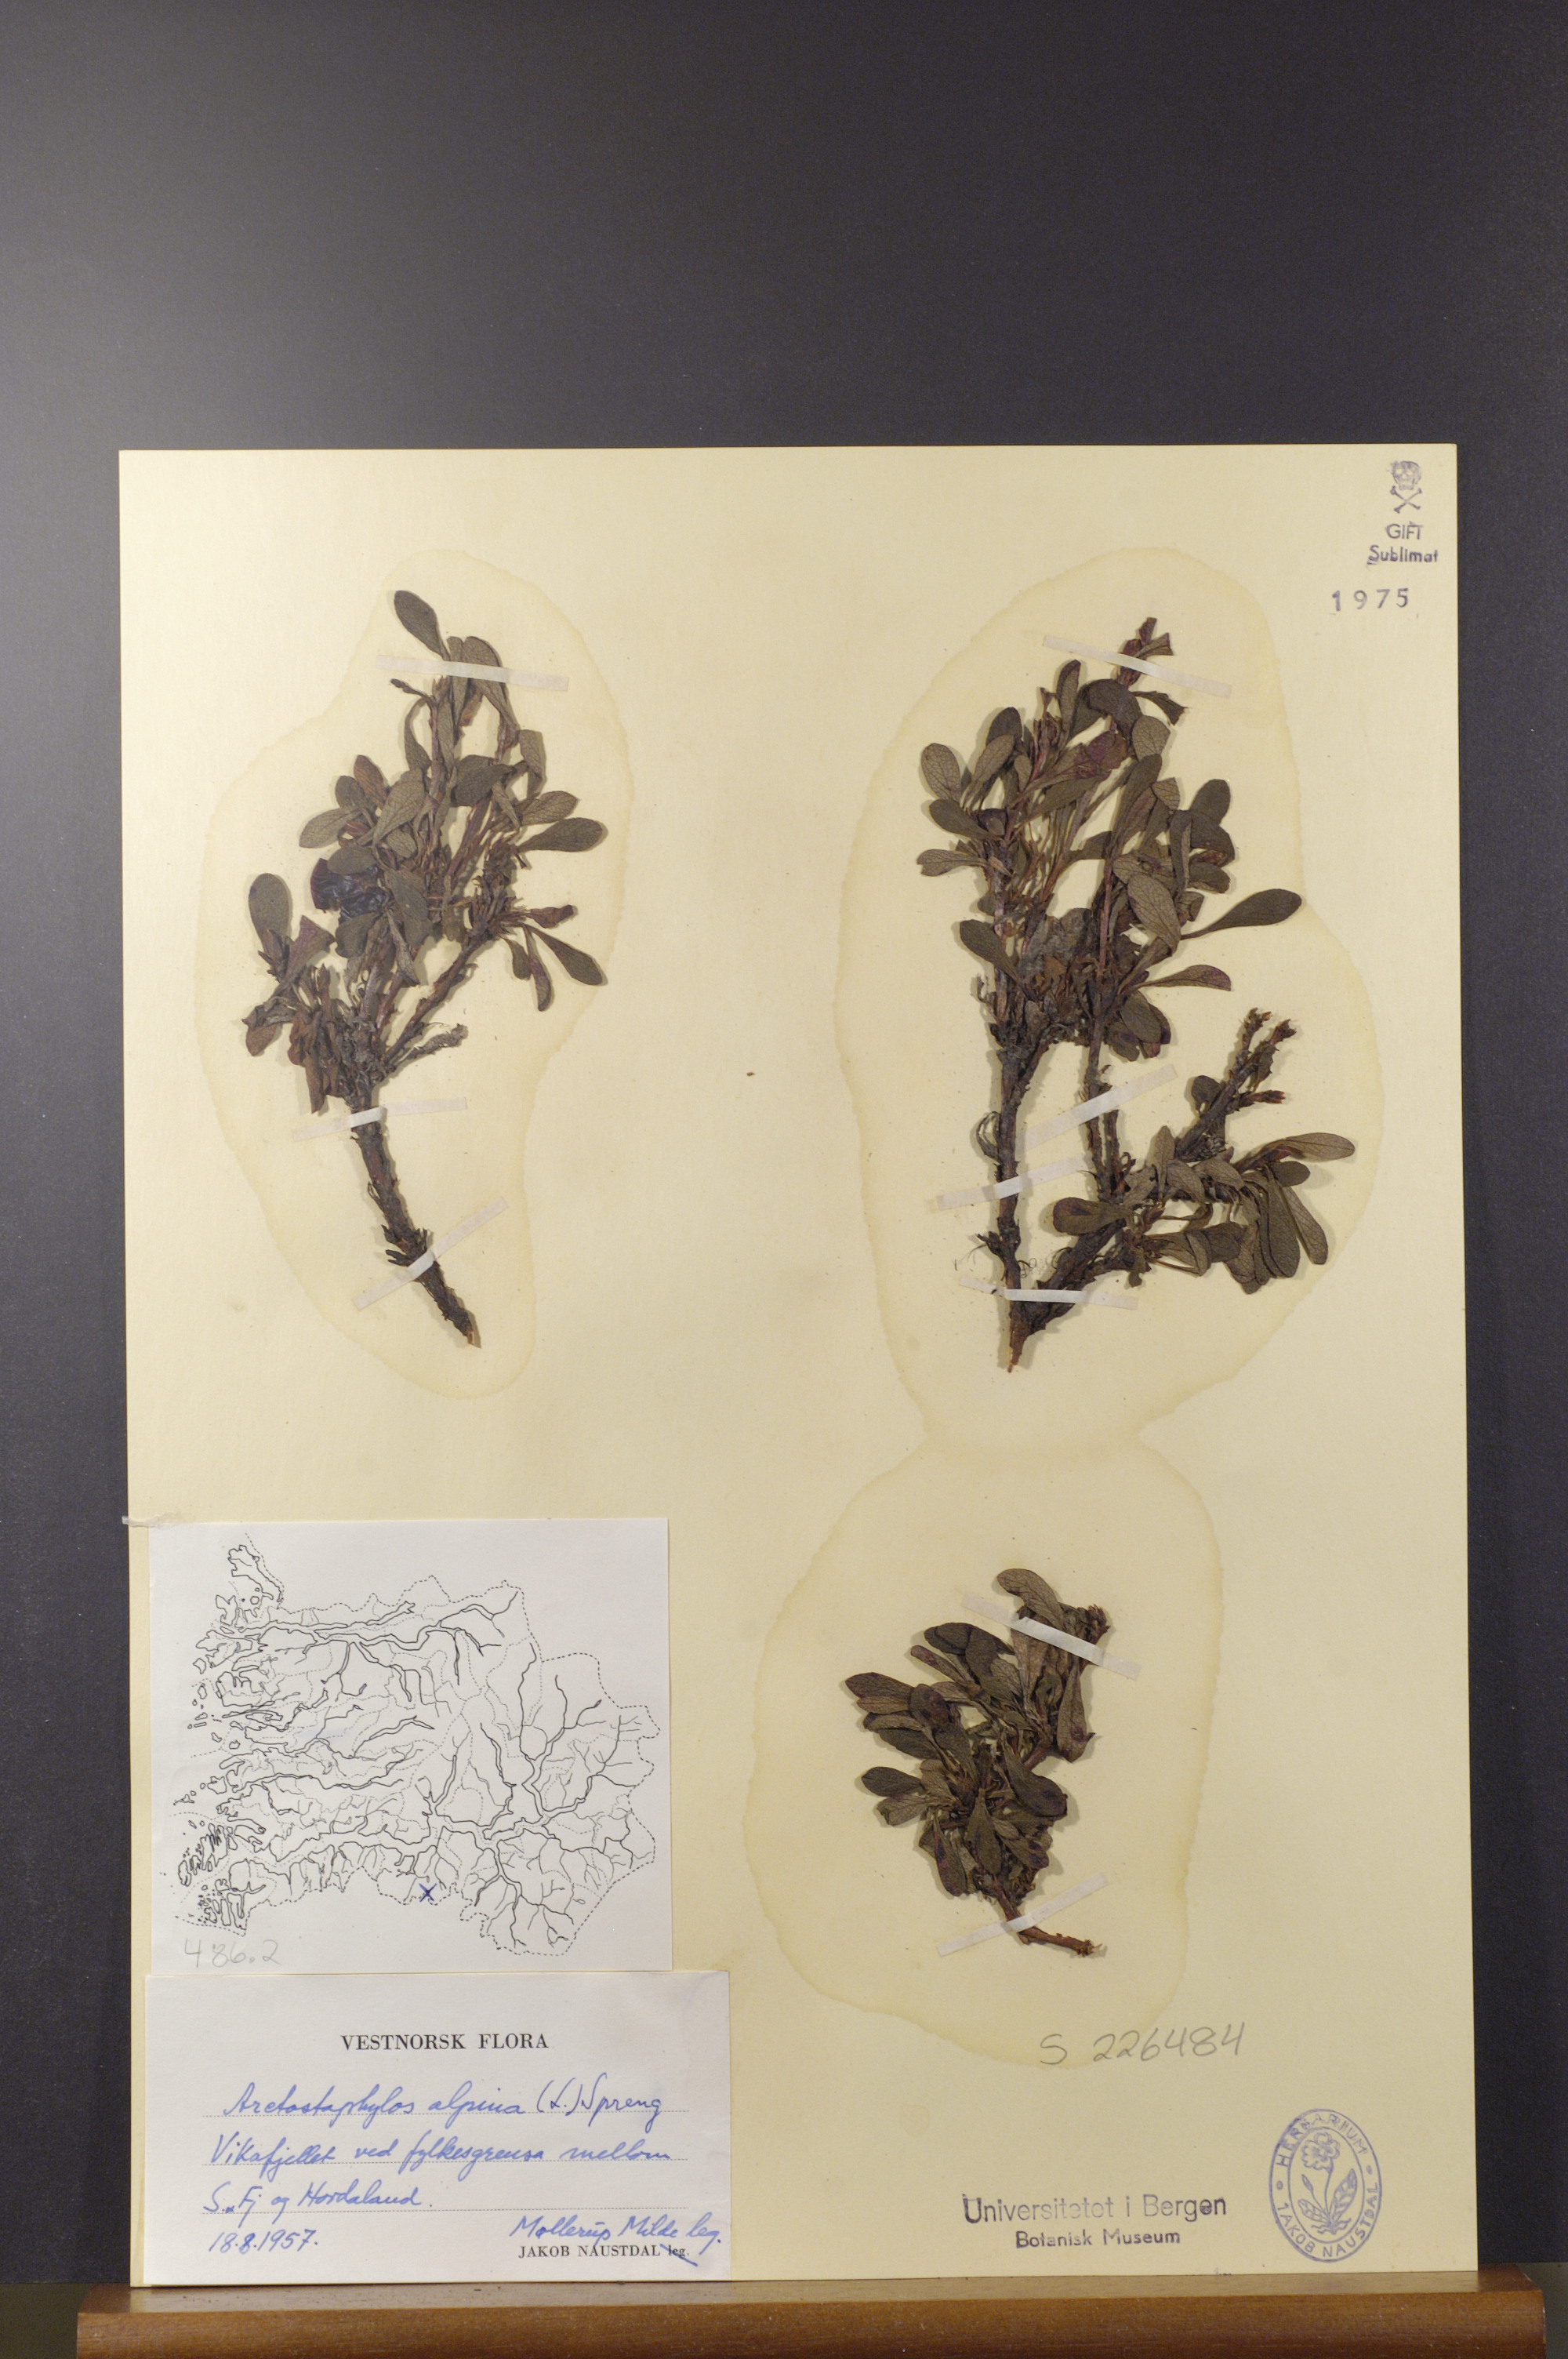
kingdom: Plantae
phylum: Tracheophyta
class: Magnoliopsida
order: Ericales
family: Ericaceae
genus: Arctostaphylos
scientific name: Arctostaphylos alpinus
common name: Alpine bearberry
